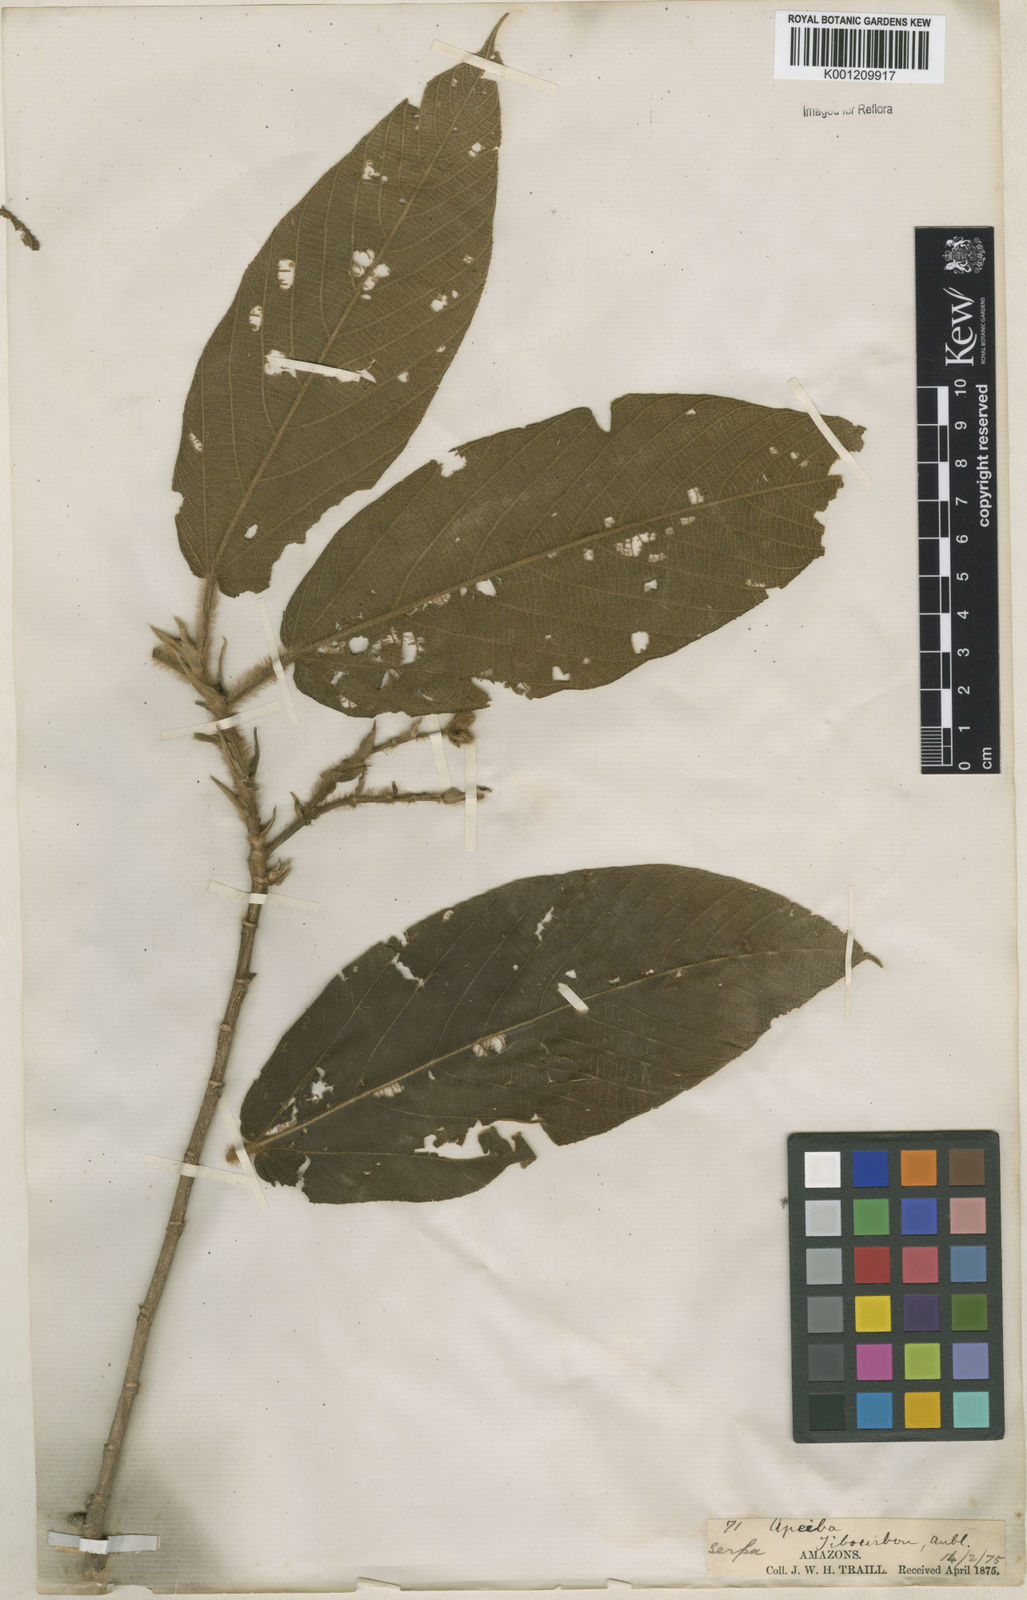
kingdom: Plantae
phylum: Tracheophyta
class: Magnoliopsida
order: Malvales
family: Malvaceae
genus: Apeiba
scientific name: Apeiba tibourbou
